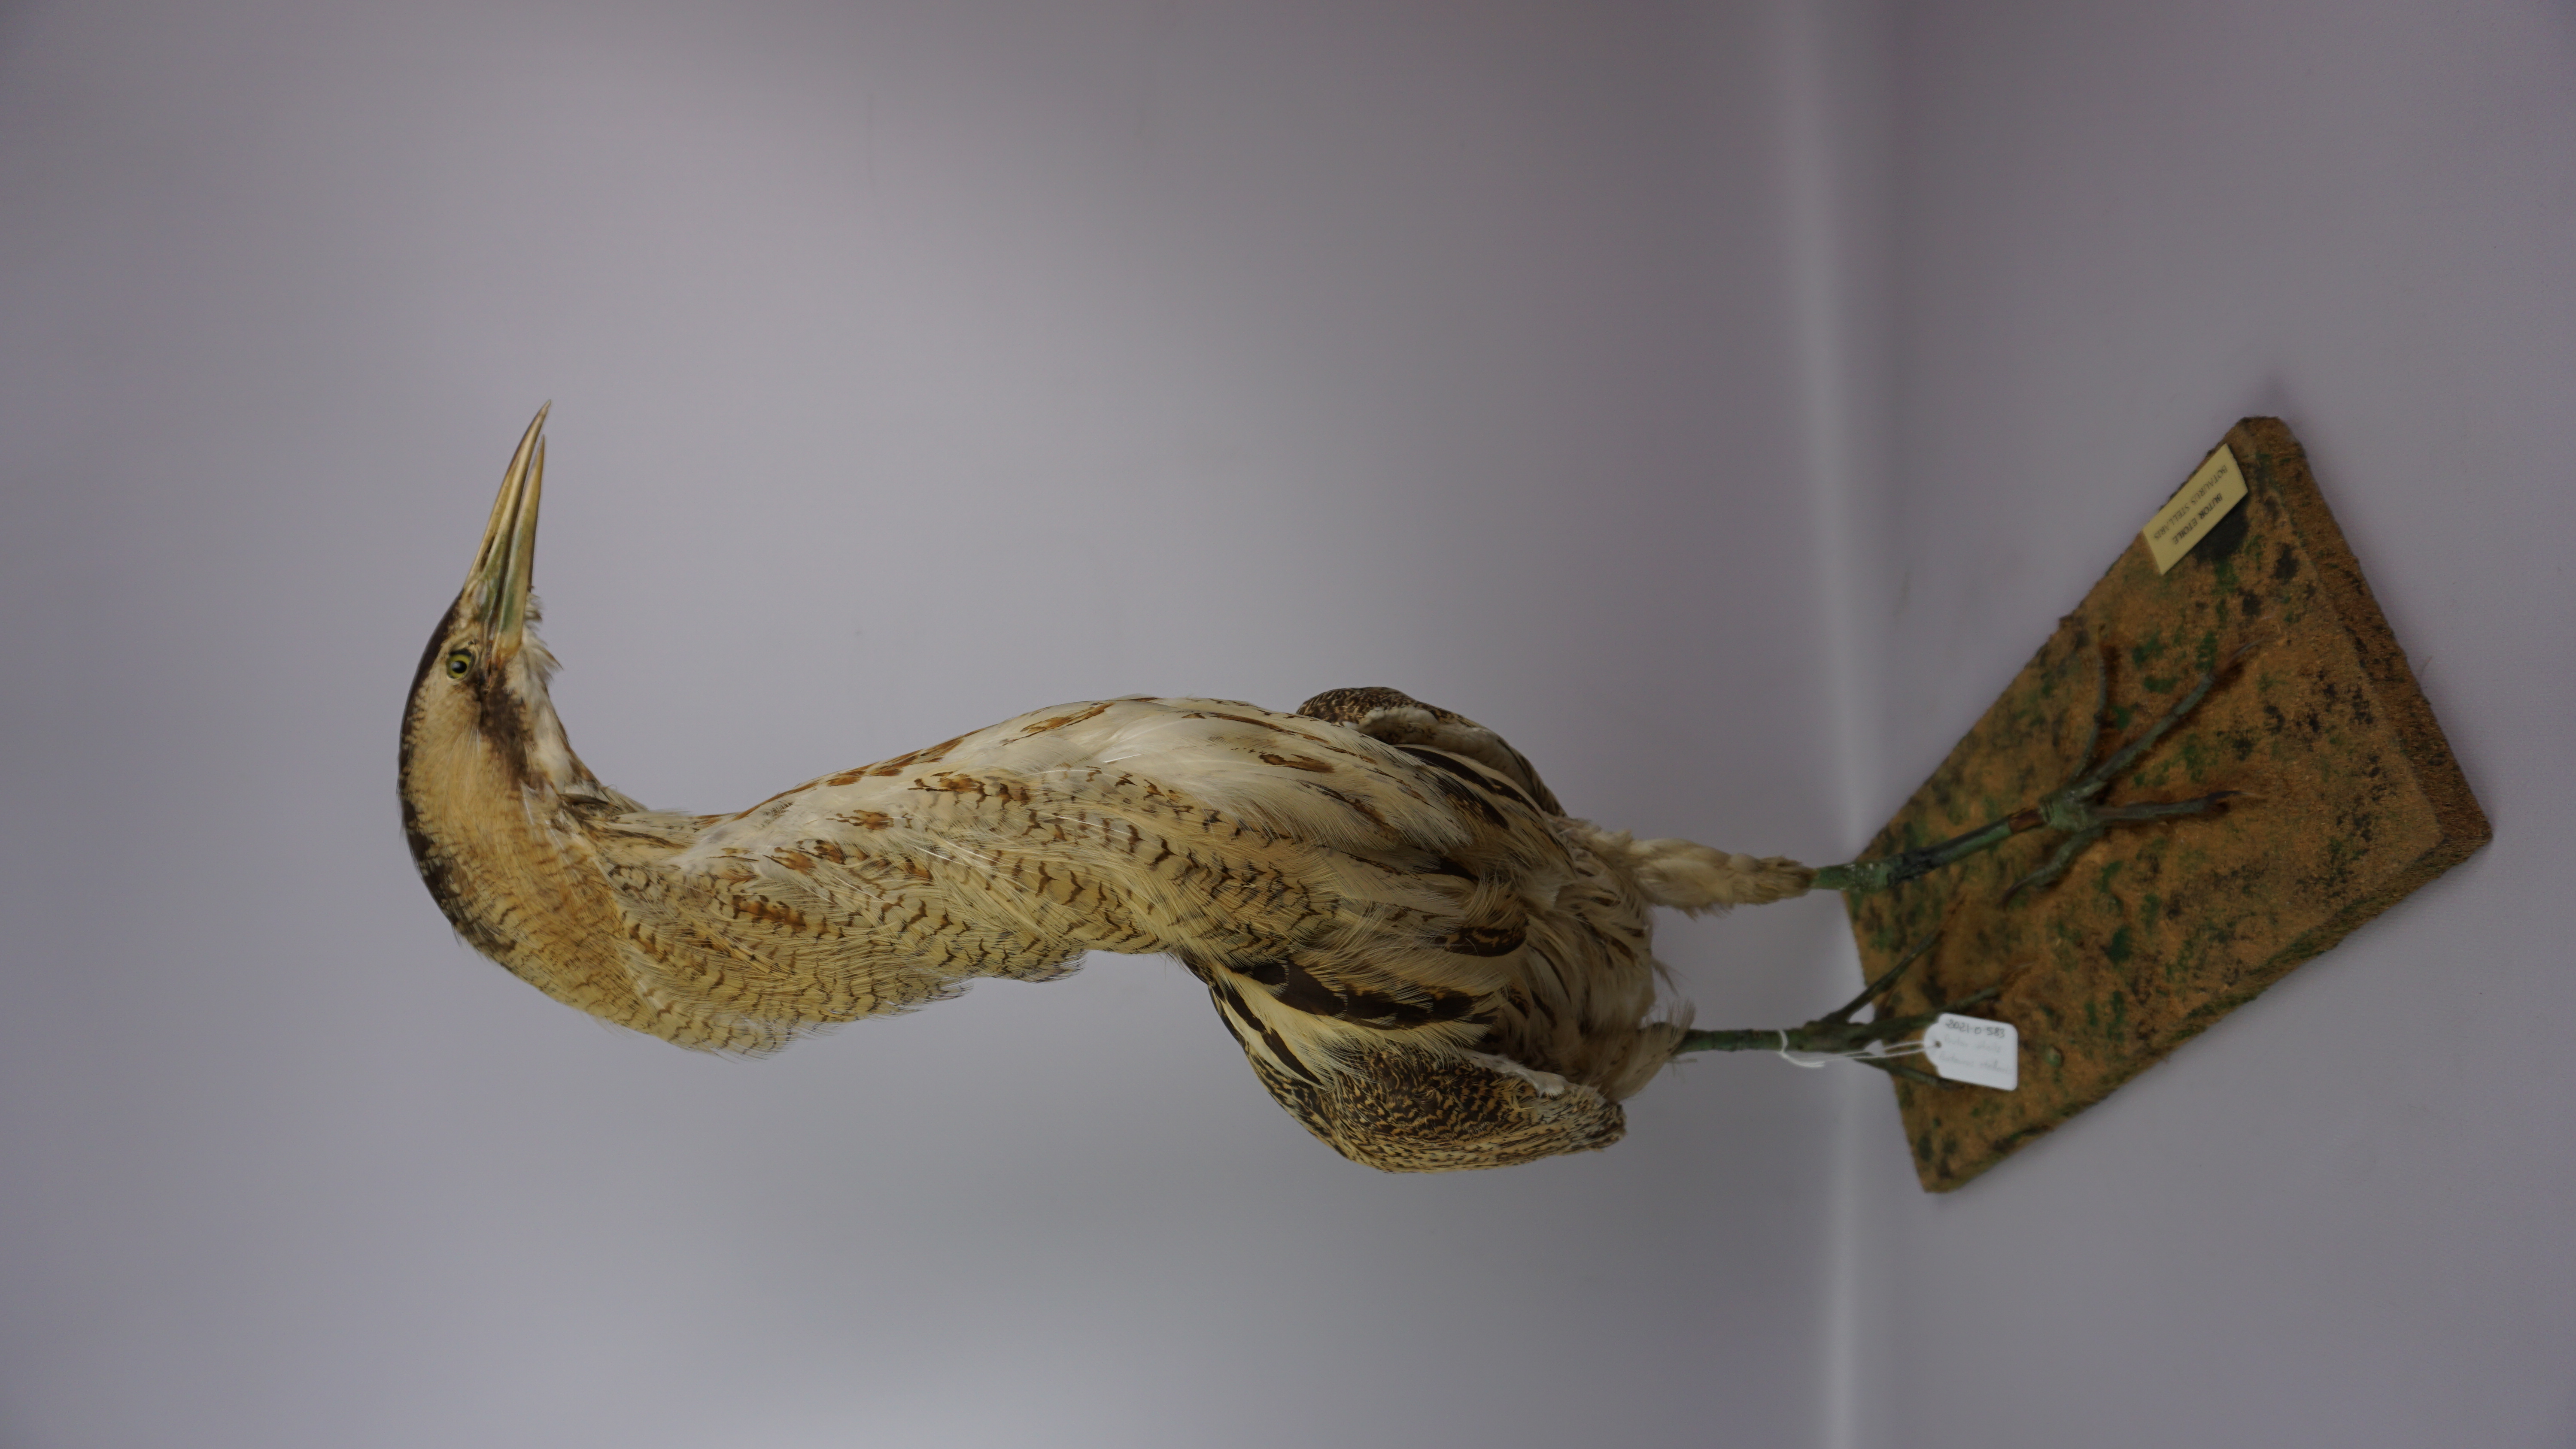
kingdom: Animalia
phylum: Chordata
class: Aves
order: Pelecaniformes
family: Ardeidae
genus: Botaurus
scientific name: Botaurus stellaris
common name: Eurasian bittern
